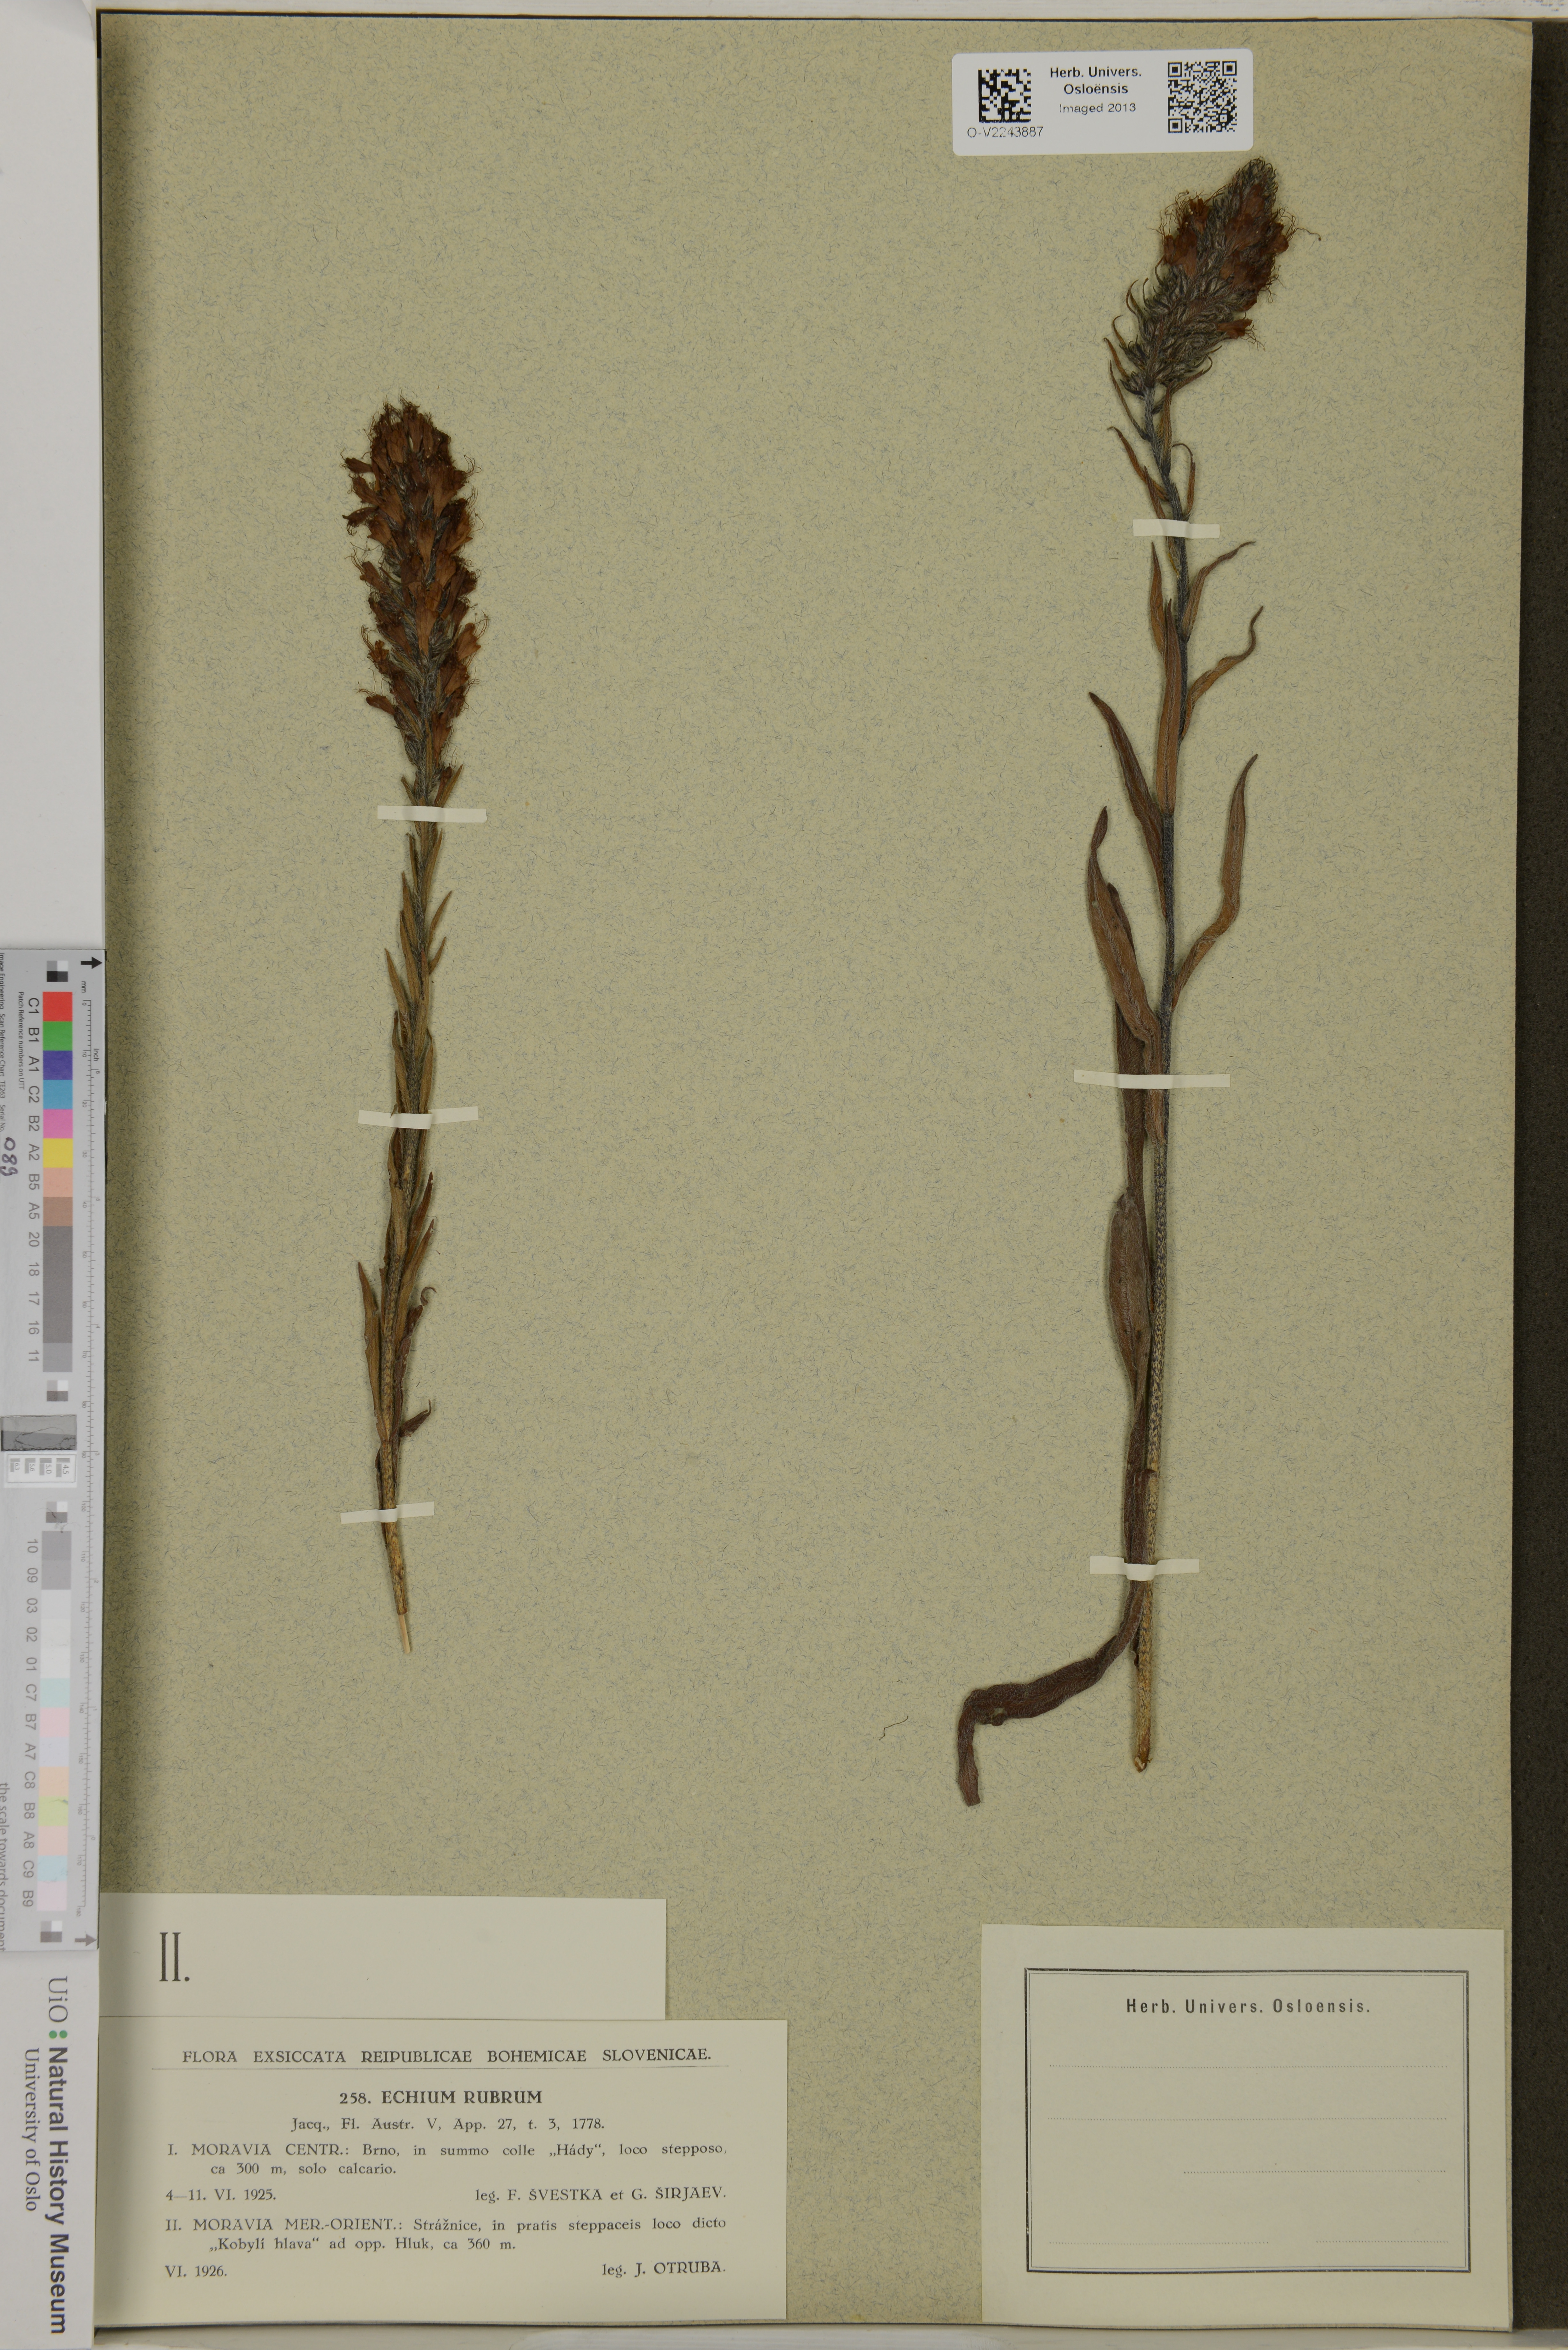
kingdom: Plantae
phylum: Tracheophyta
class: Magnoliopsida
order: Boraginales
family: Boraginaceae
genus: Echium
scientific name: Echium rubrum
